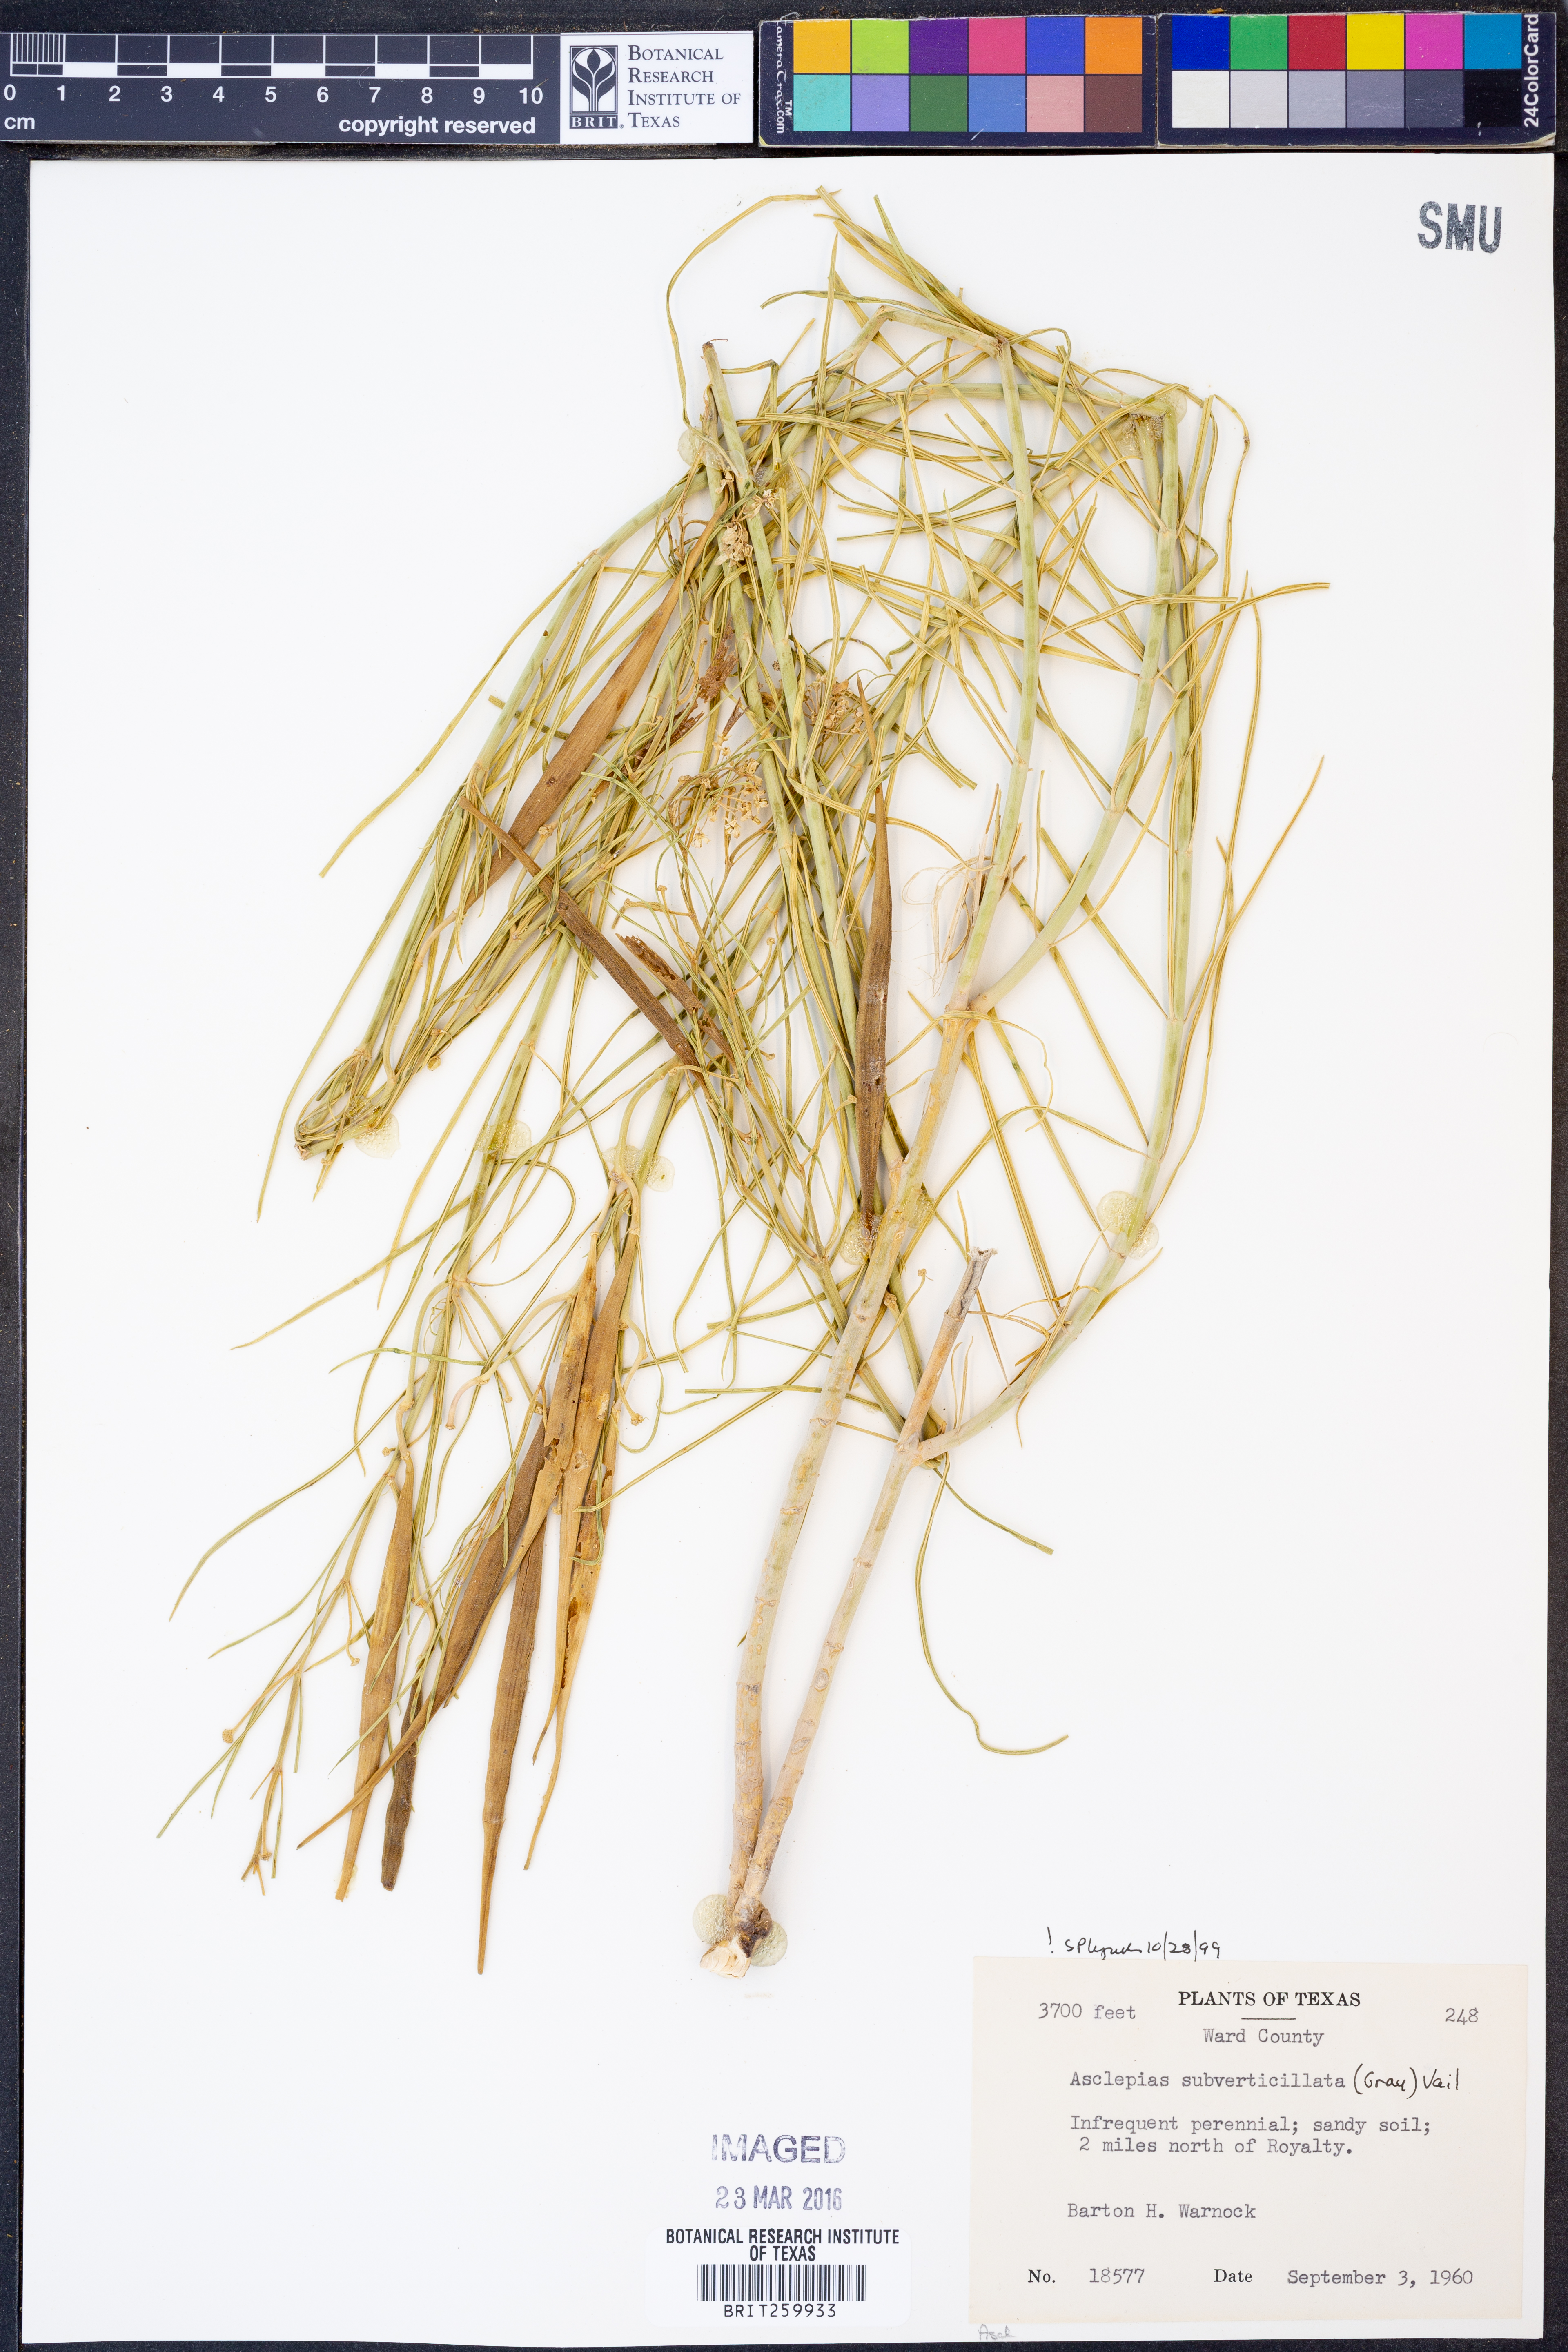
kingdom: Plantae
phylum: Tracheophyta
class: Magnoliopsida
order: Gentianales
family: Apocynaceae
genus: Asclepias
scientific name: Asclepias subverticillata
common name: Horsetail milkweed
